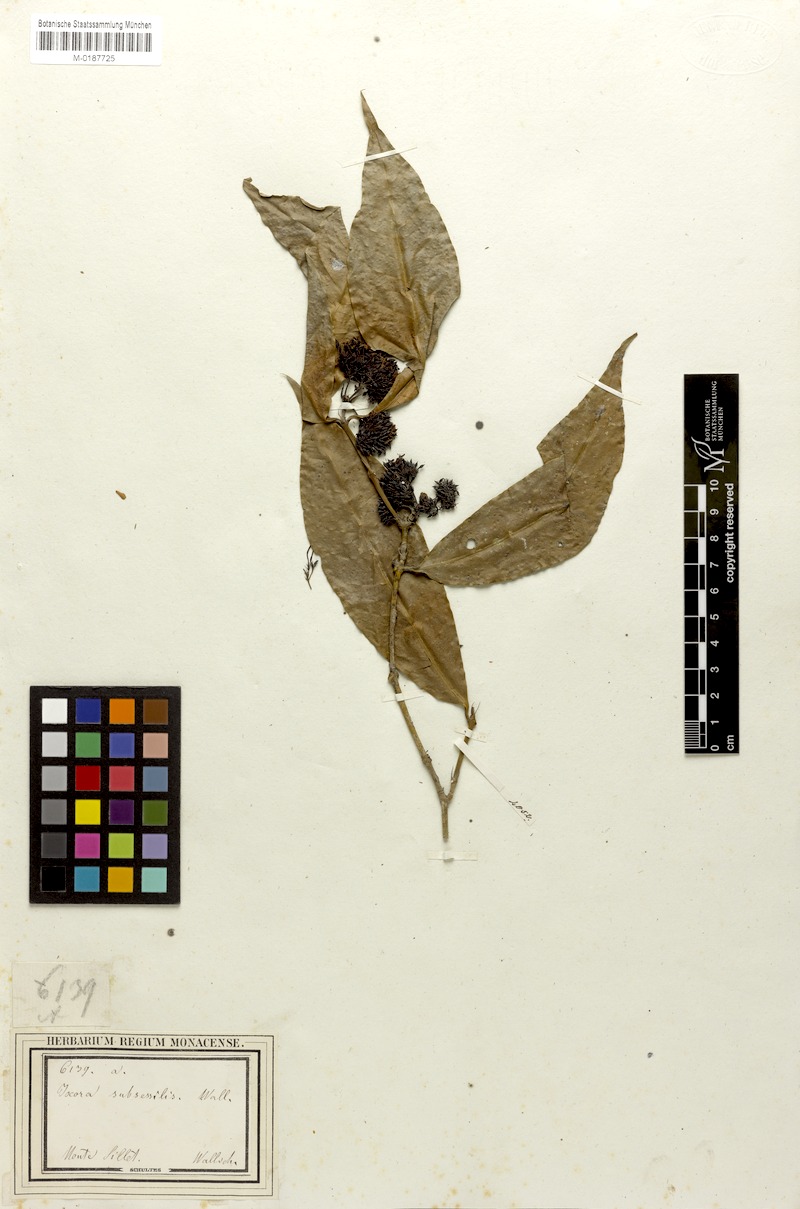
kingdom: Plantae
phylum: Tracheophyta
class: Magnoliopsida
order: Gentianales
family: Rubiaceae
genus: Ixora
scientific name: Ixora subsessilis
